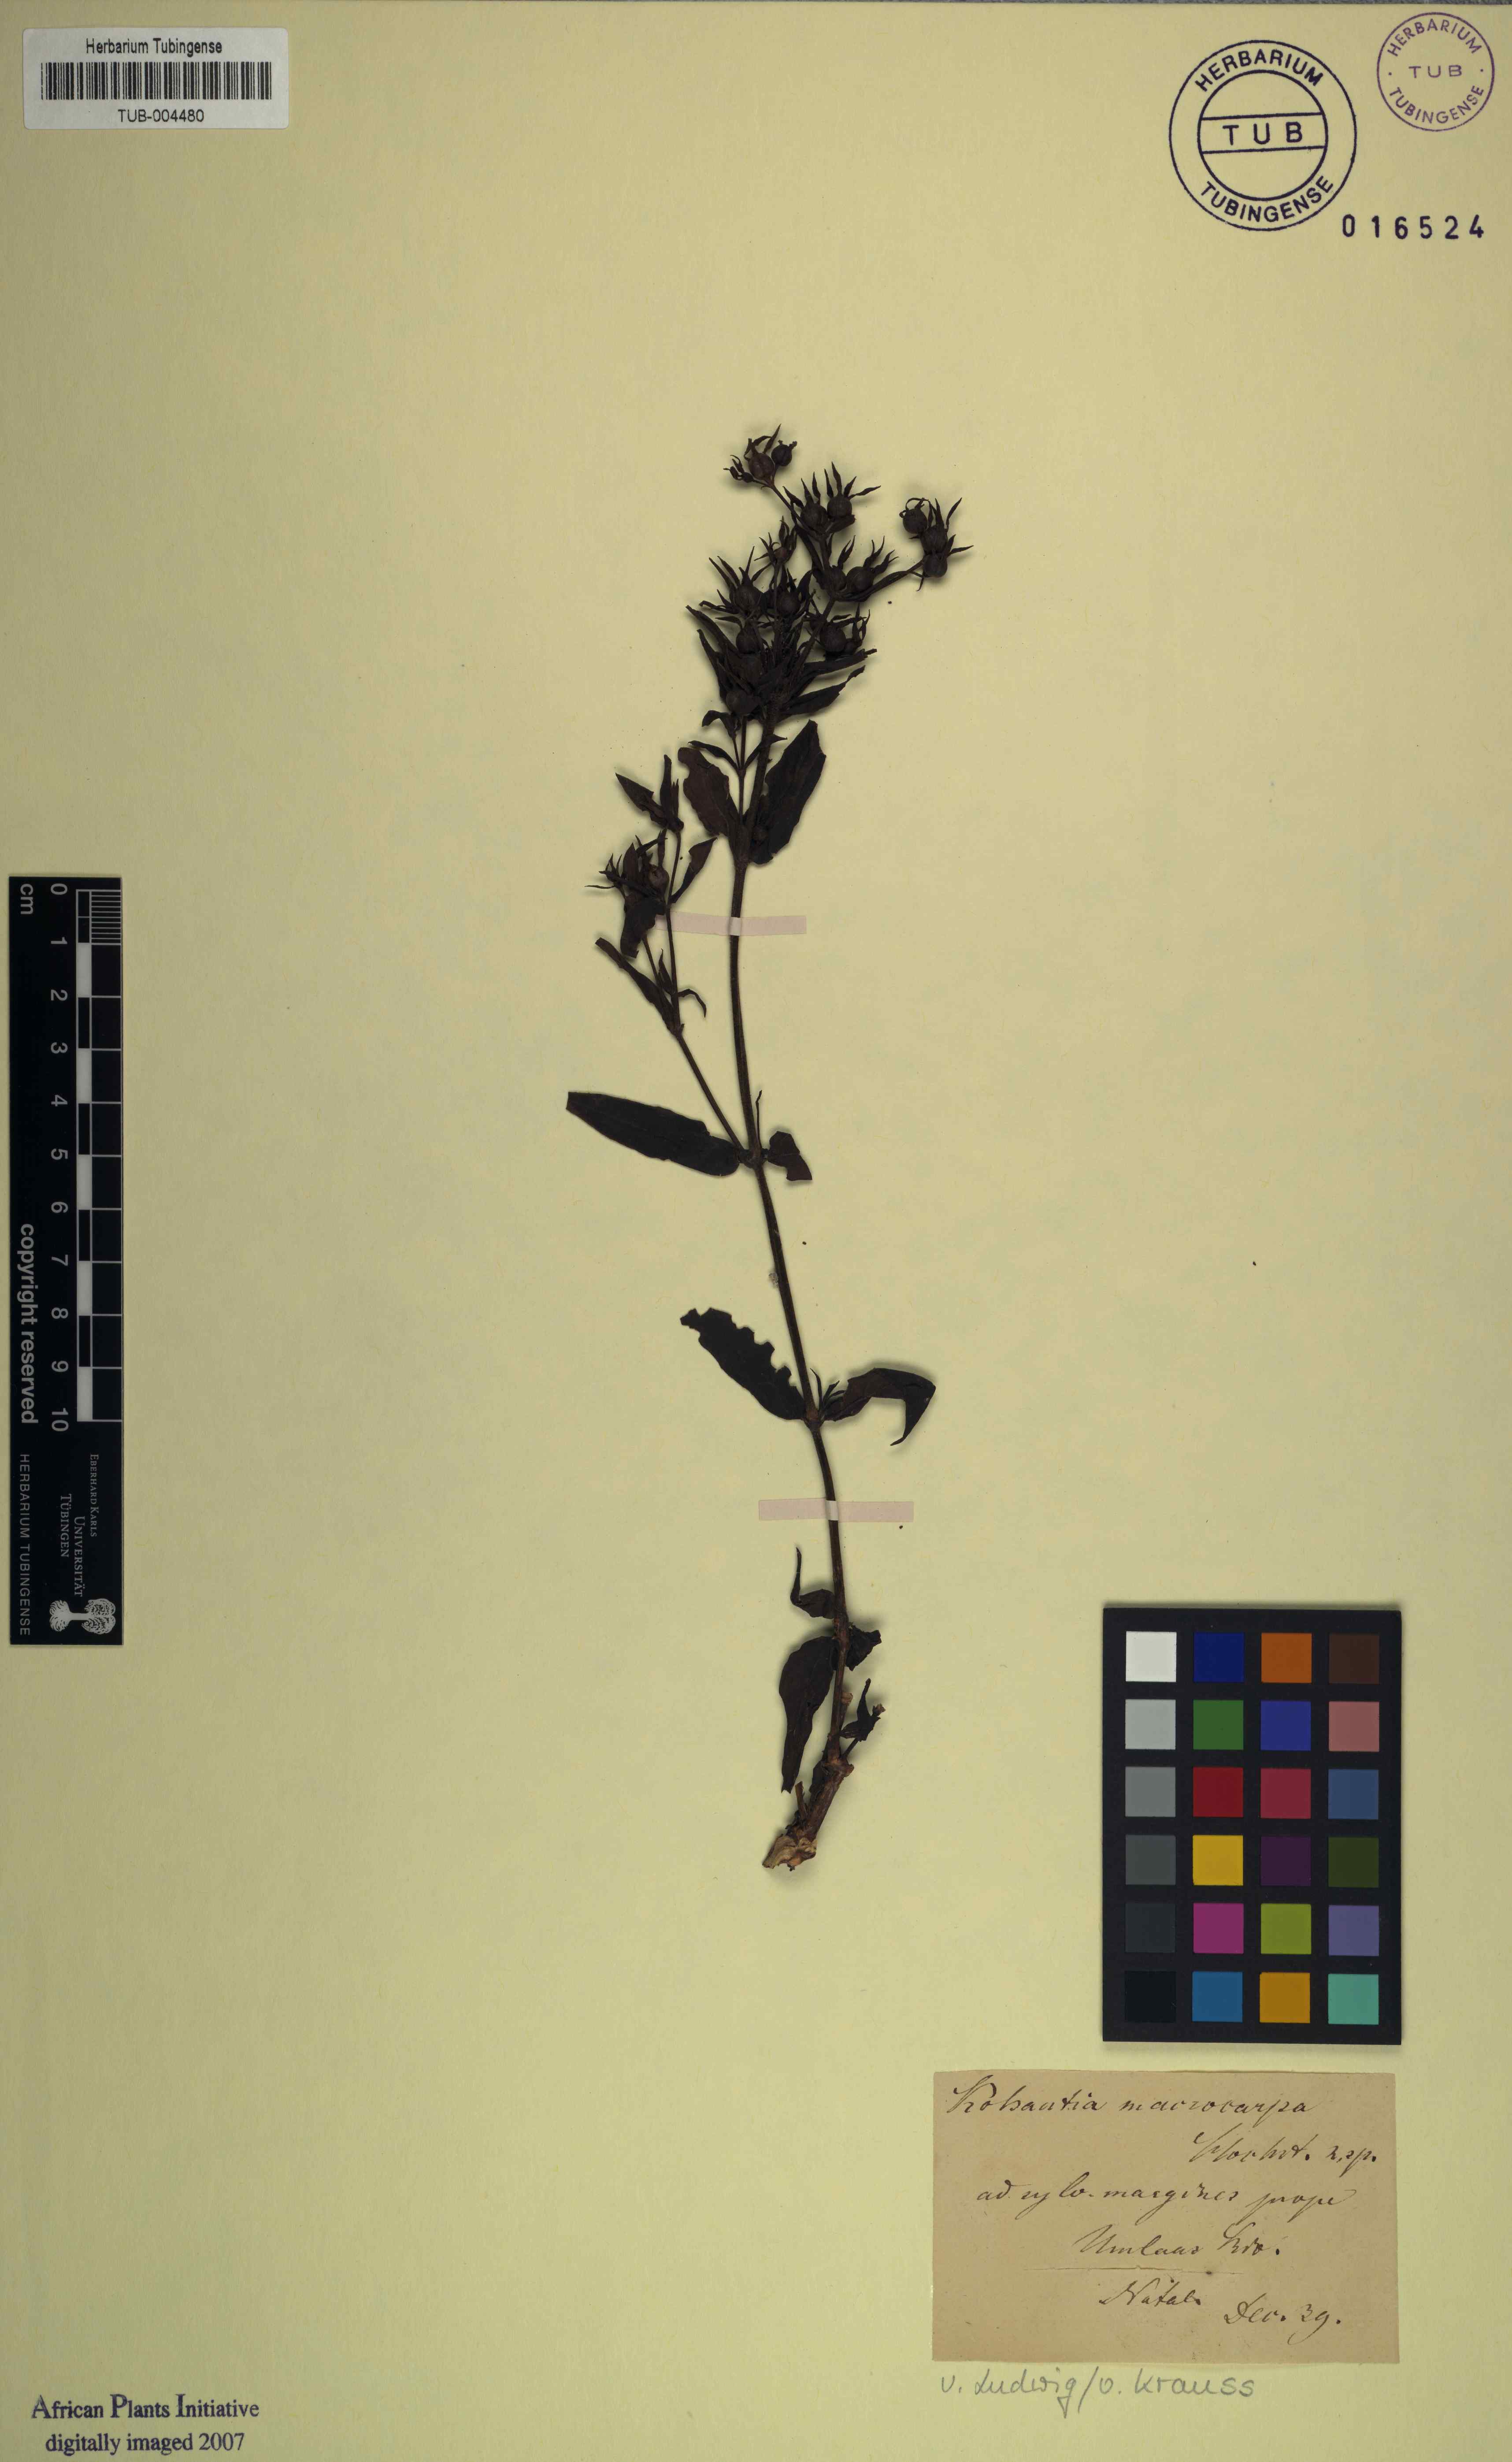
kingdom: Plantae
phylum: Tracheophyta
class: Magnoliopsida
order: Gentianales
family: Rubiaceae
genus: Kohautia
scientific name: Kohautia
